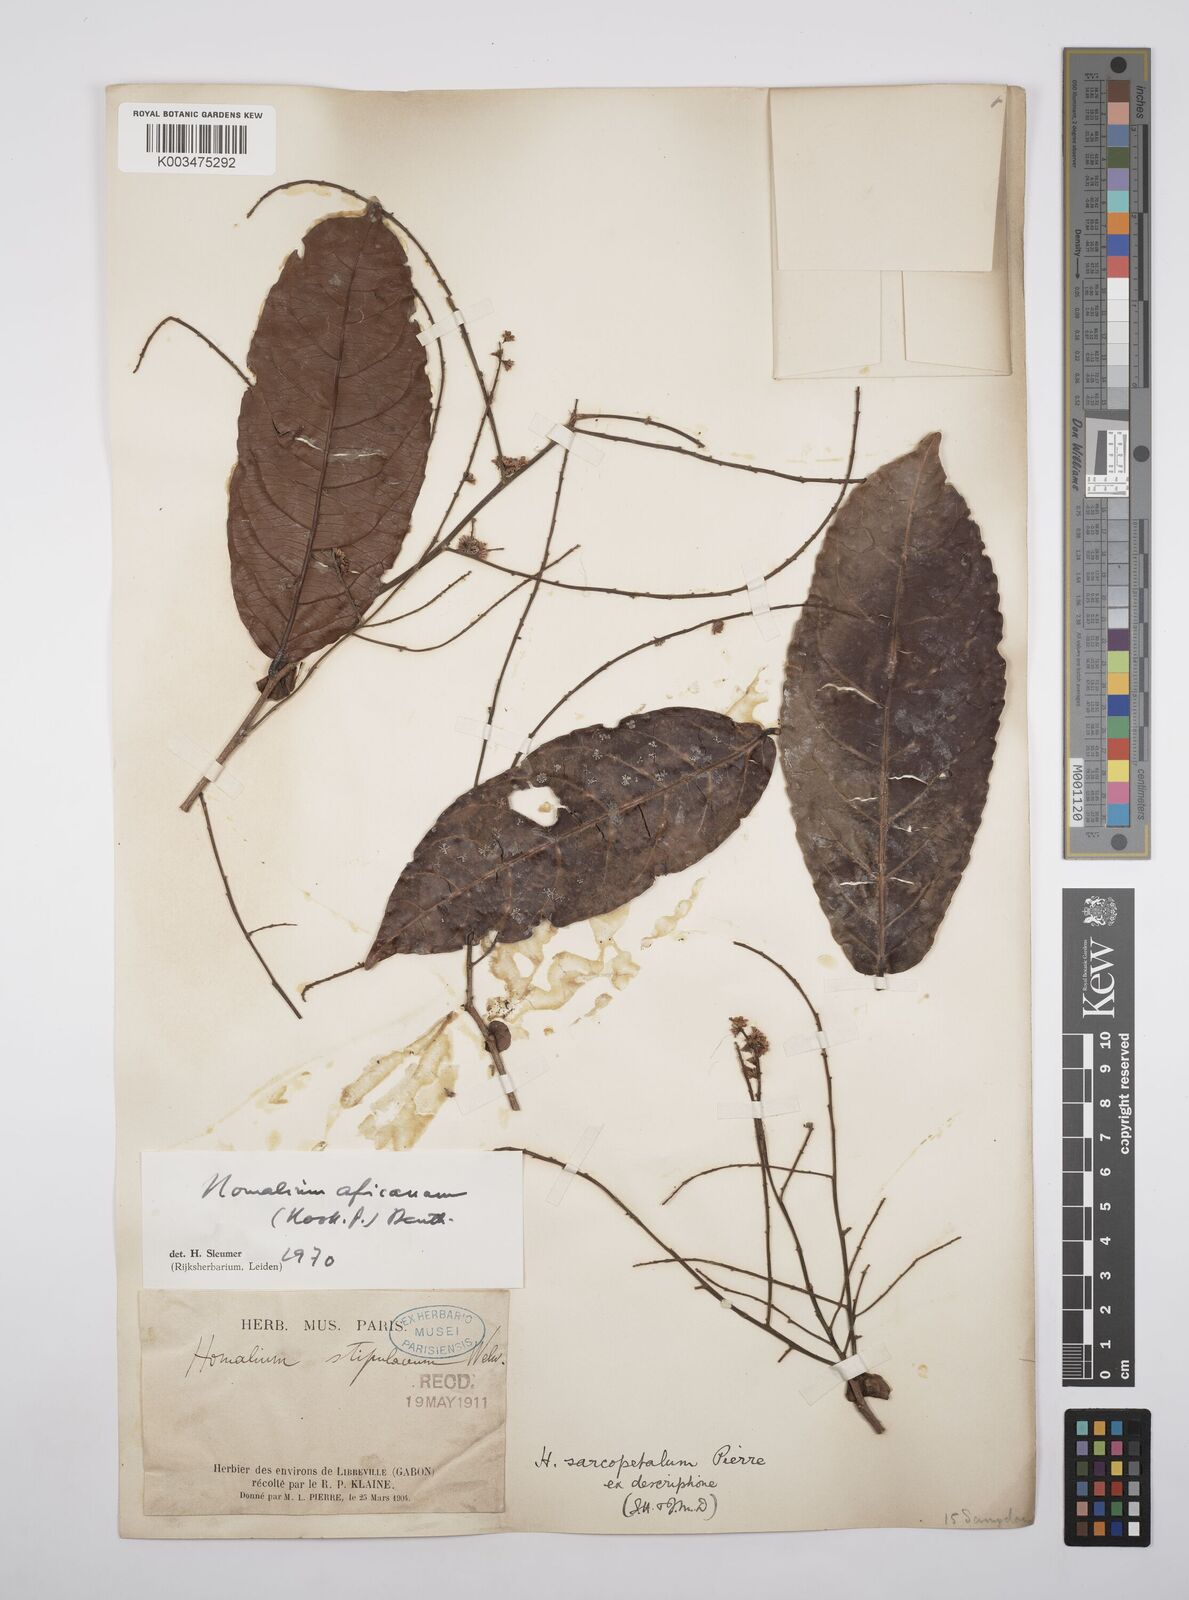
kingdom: Plantae
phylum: Tracheophyta
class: Magnoliopsida
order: Malpighiales
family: Salicaceae
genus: Homalium
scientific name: Homalium africanum
